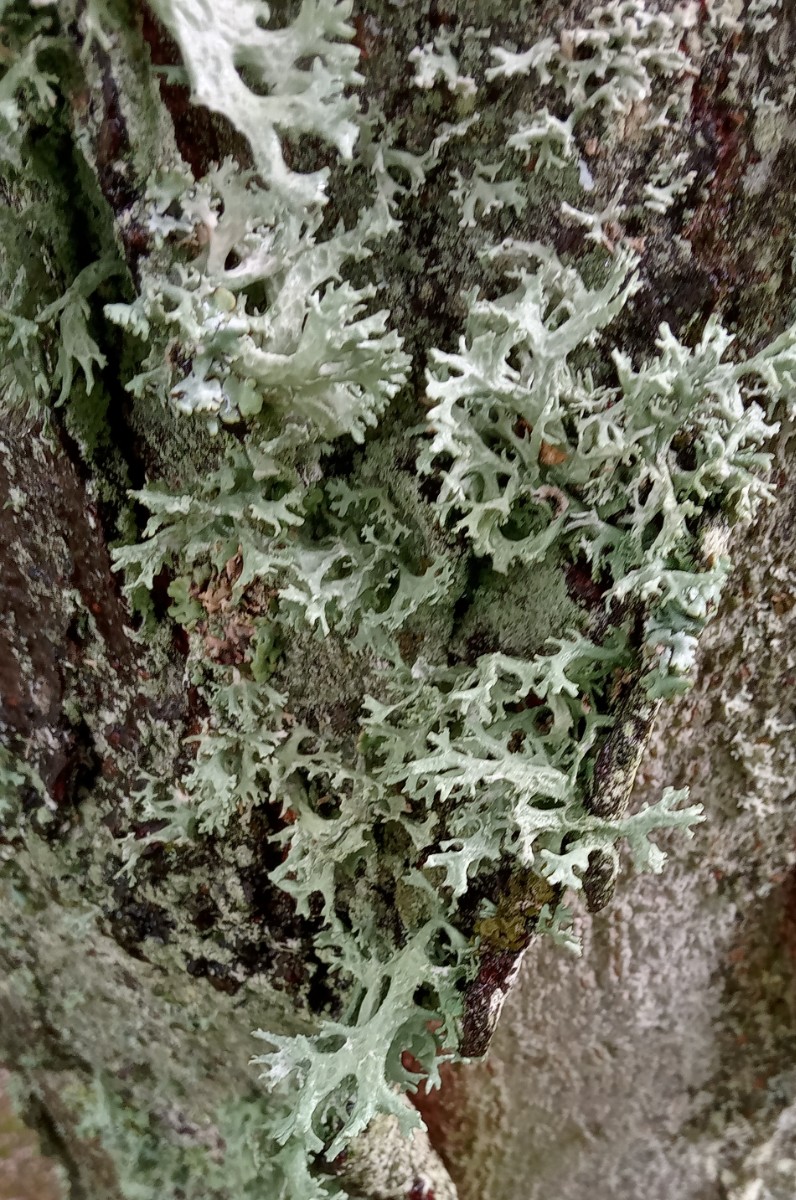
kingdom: Fungi
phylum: Ascomycota
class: Lecanoromycetes
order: Lecanorales
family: Parmeliaceae
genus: Evernia
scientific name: Evernia prunastri
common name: almindelig slåenlav
